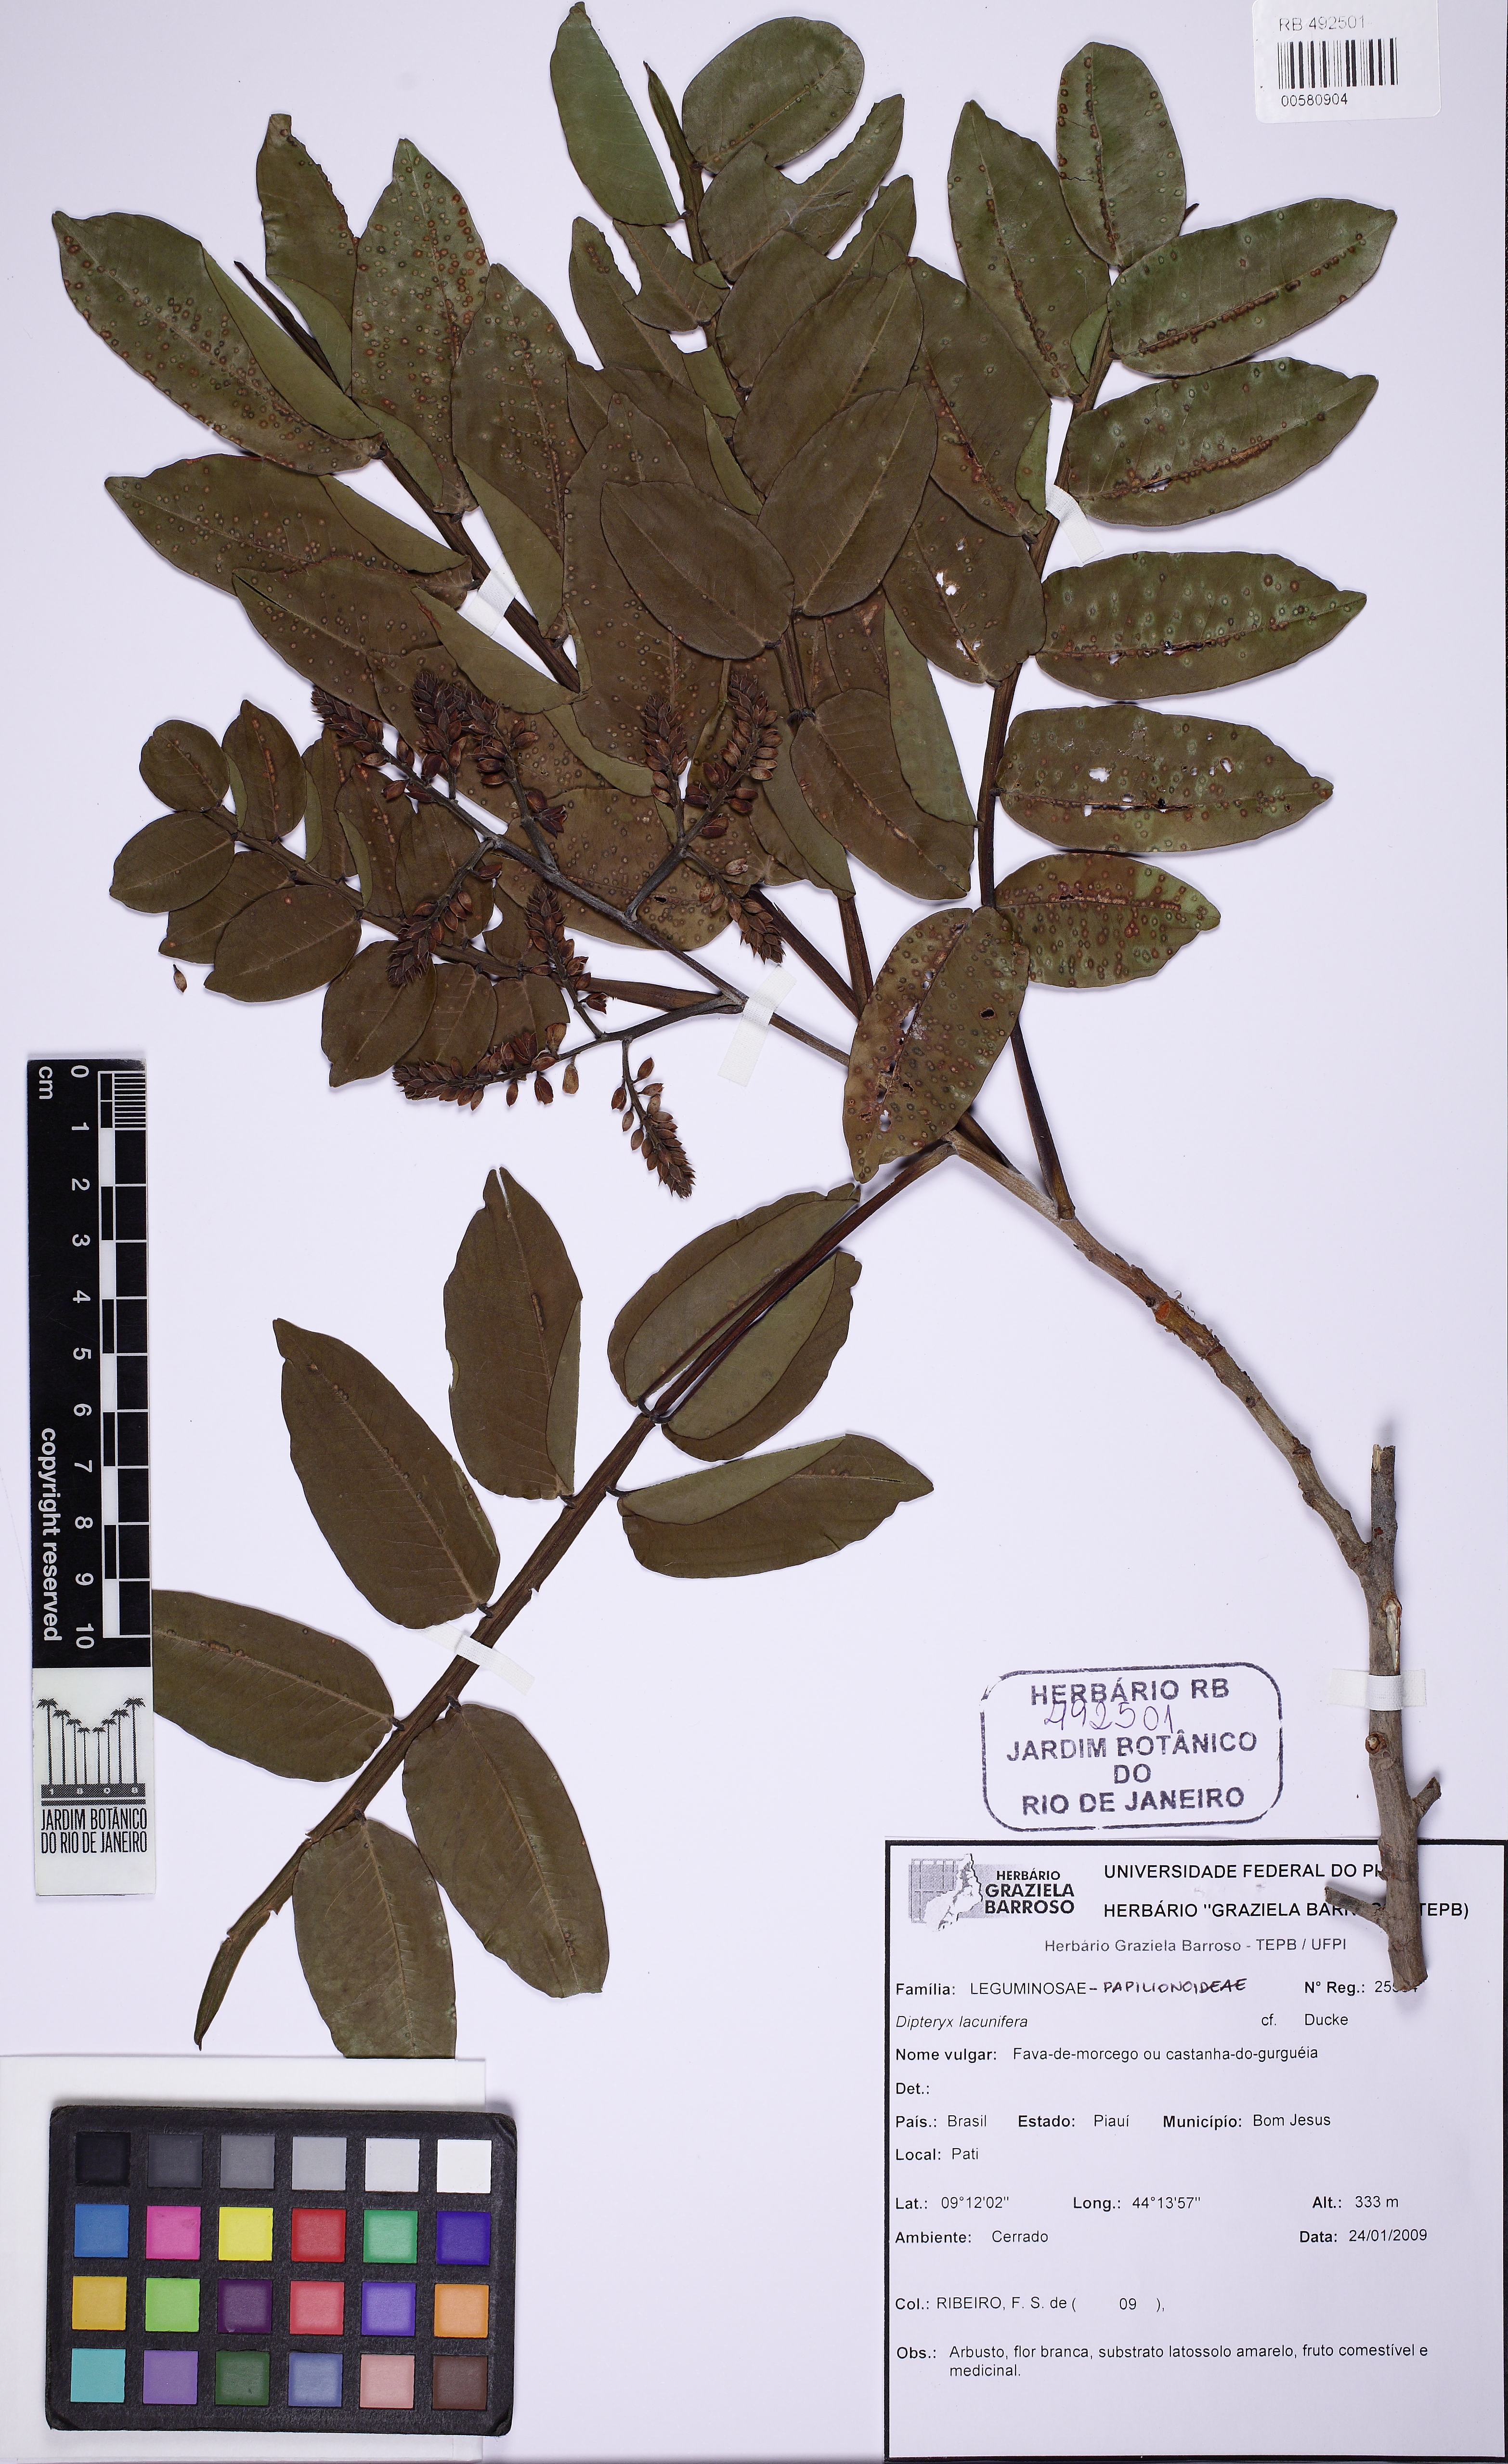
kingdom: Plantae
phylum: Tracheophyta
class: Magnoliopsida
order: Fabales
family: Fabaceae
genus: Dipteryx
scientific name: Dipteryx lacunifera
